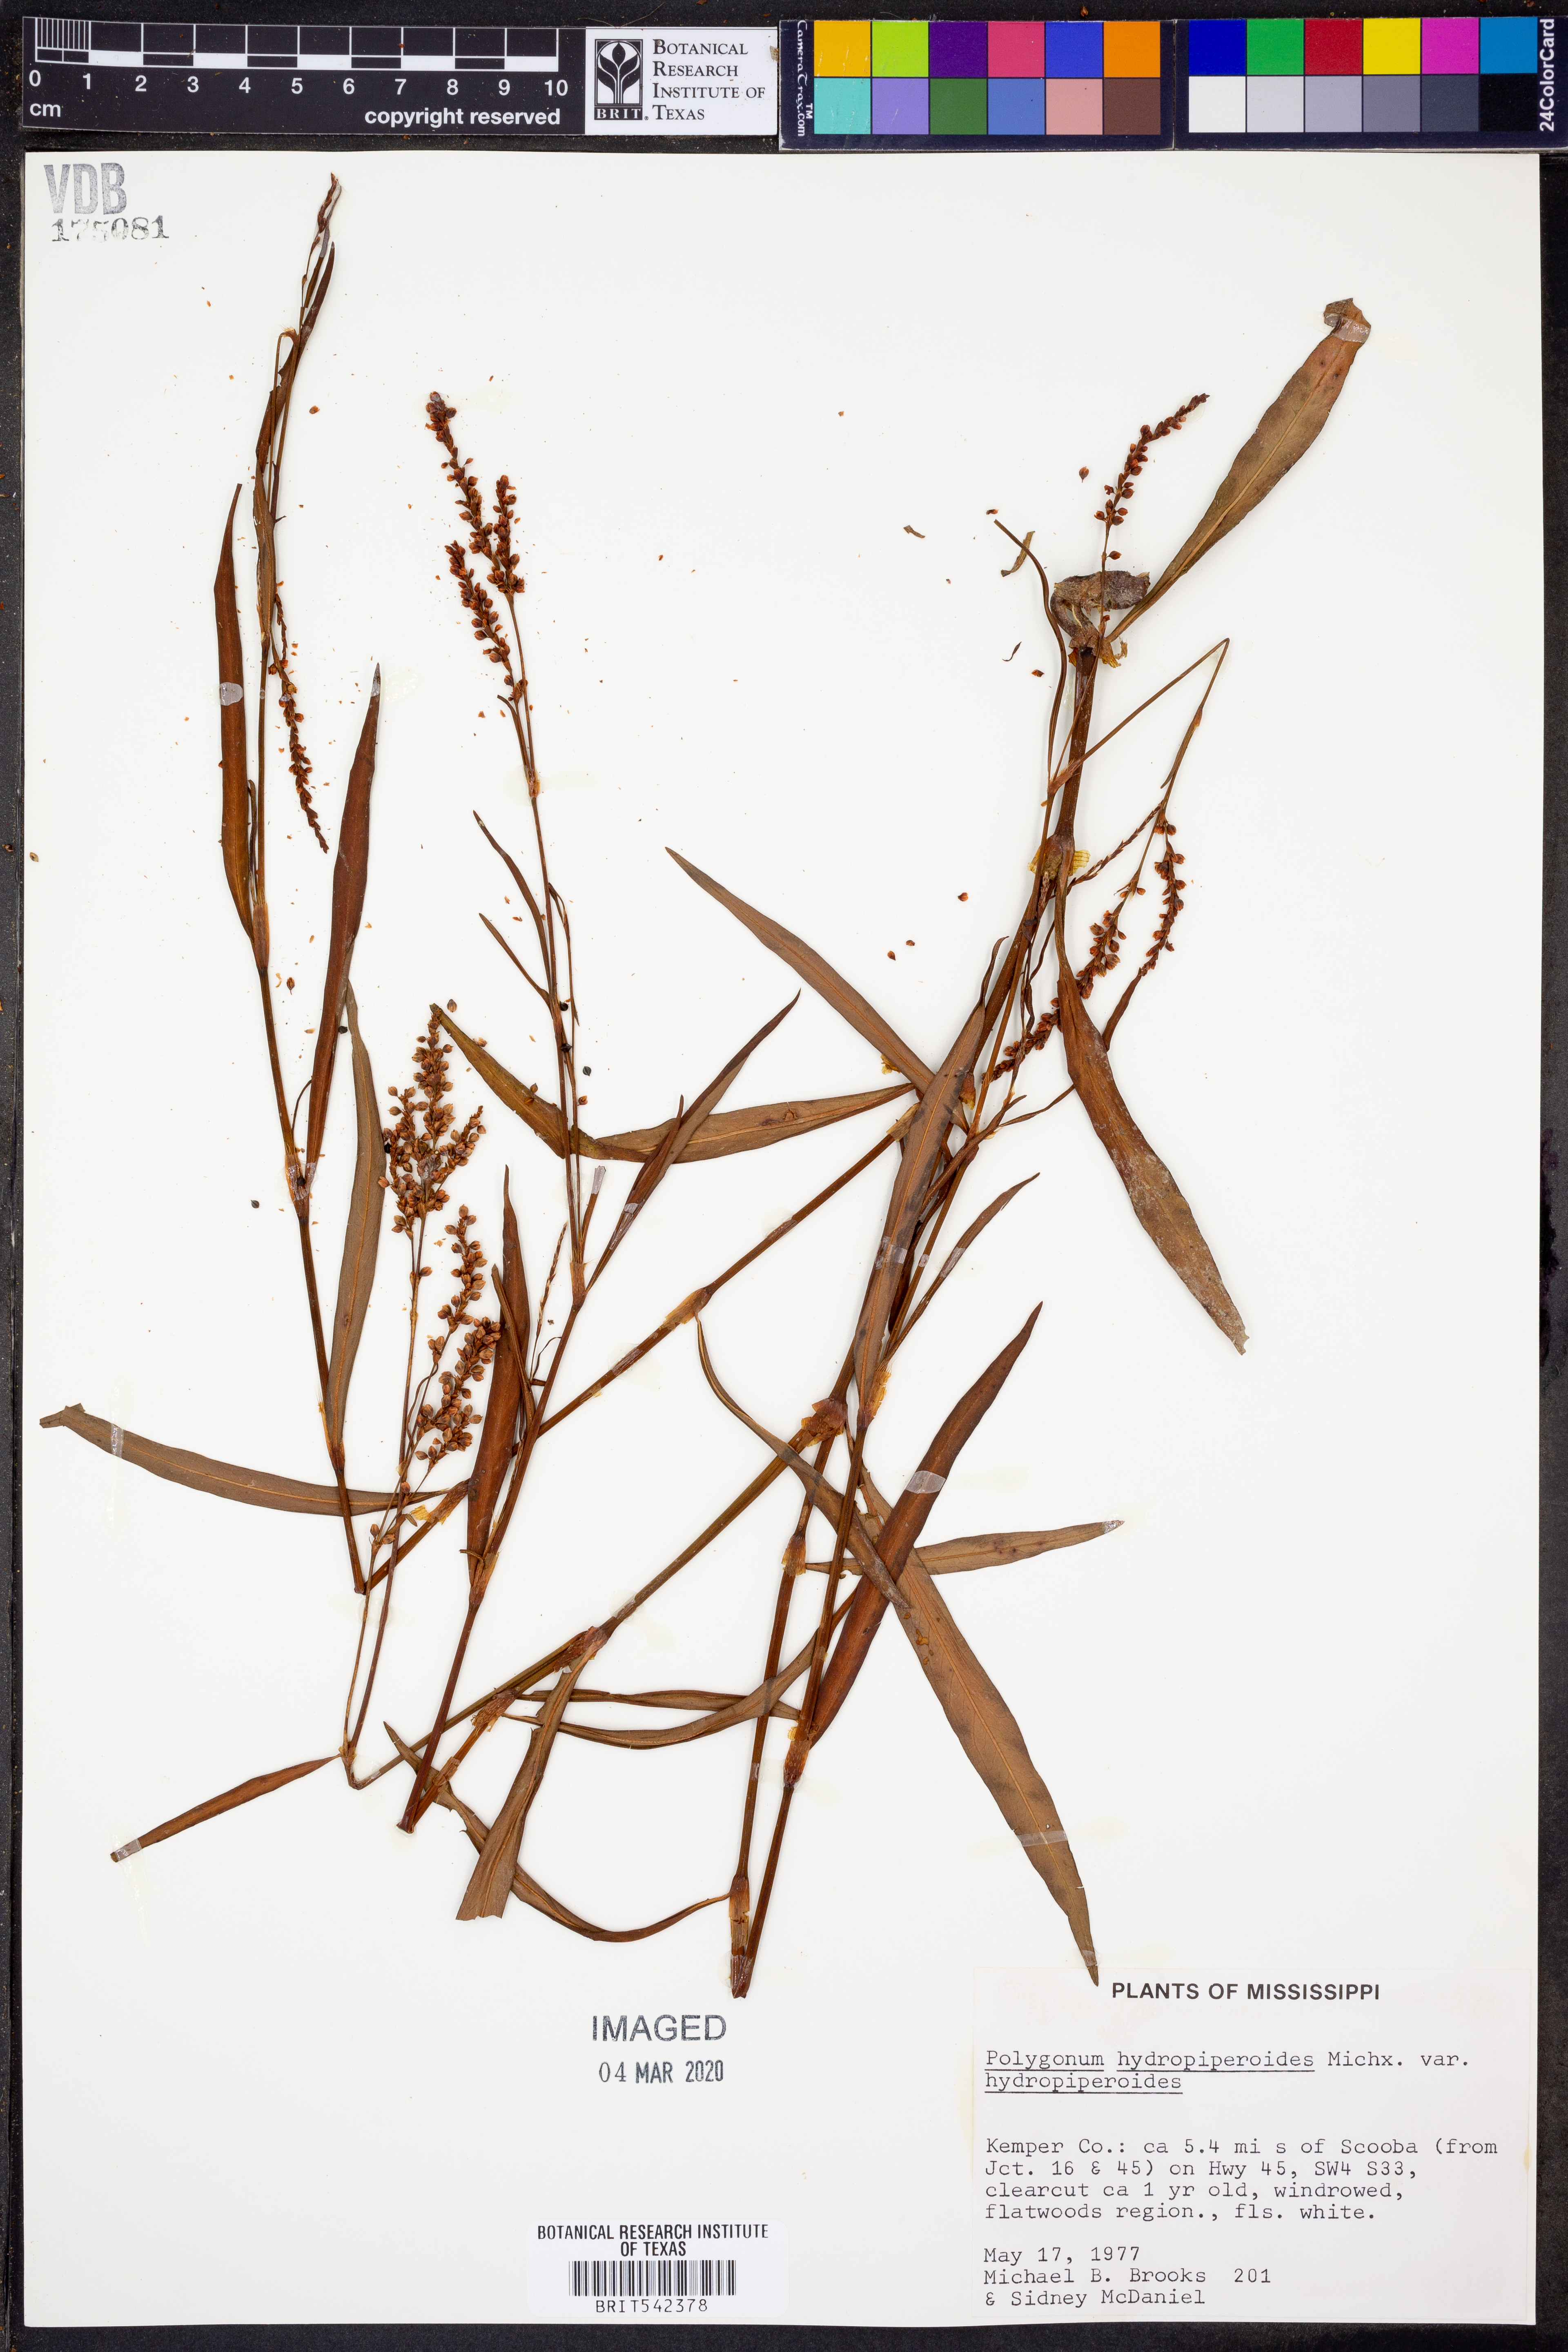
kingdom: Plantae
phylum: Tracheophyta
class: Magnoliopsida
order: Caryophyllales
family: Polygonaceae
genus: Persicaria
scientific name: Persicaria hydropiperoides
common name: Swamp smartweed
